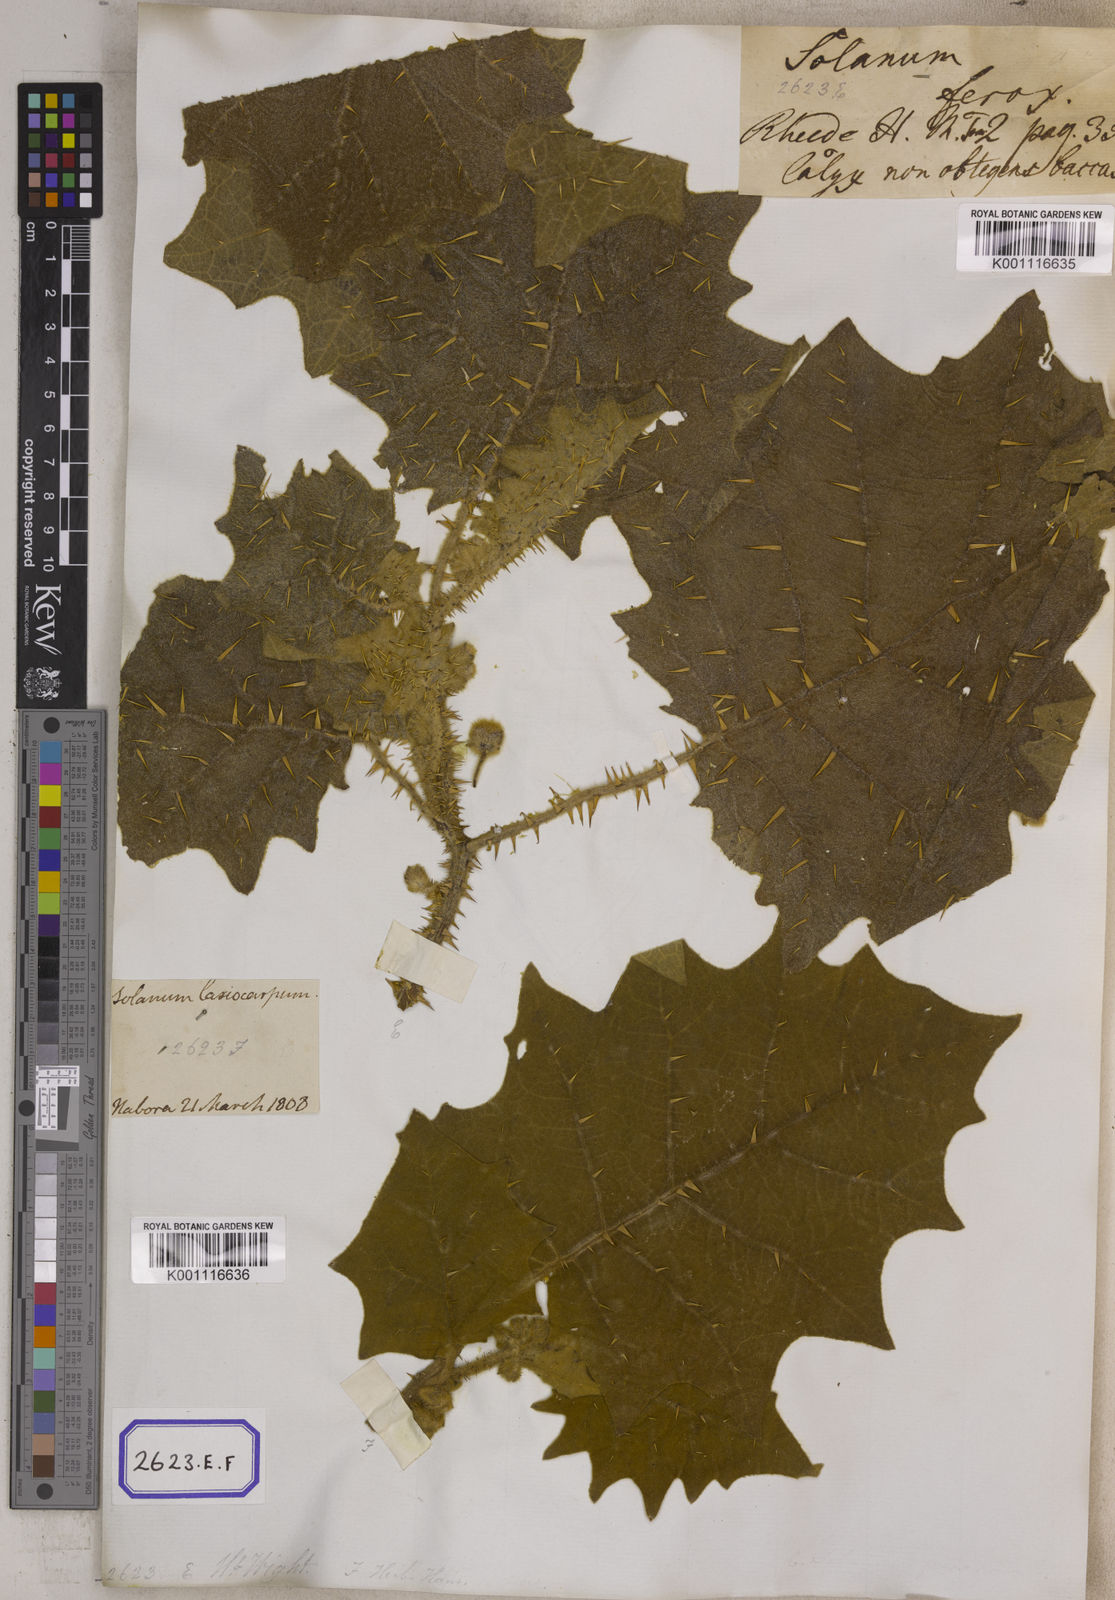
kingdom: Plantae
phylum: Tracheophyta
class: Magnoliopsida
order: Solanales
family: Solanaceae
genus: Solanum
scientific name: Solanum lasiocarpum
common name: Indian nightshade
